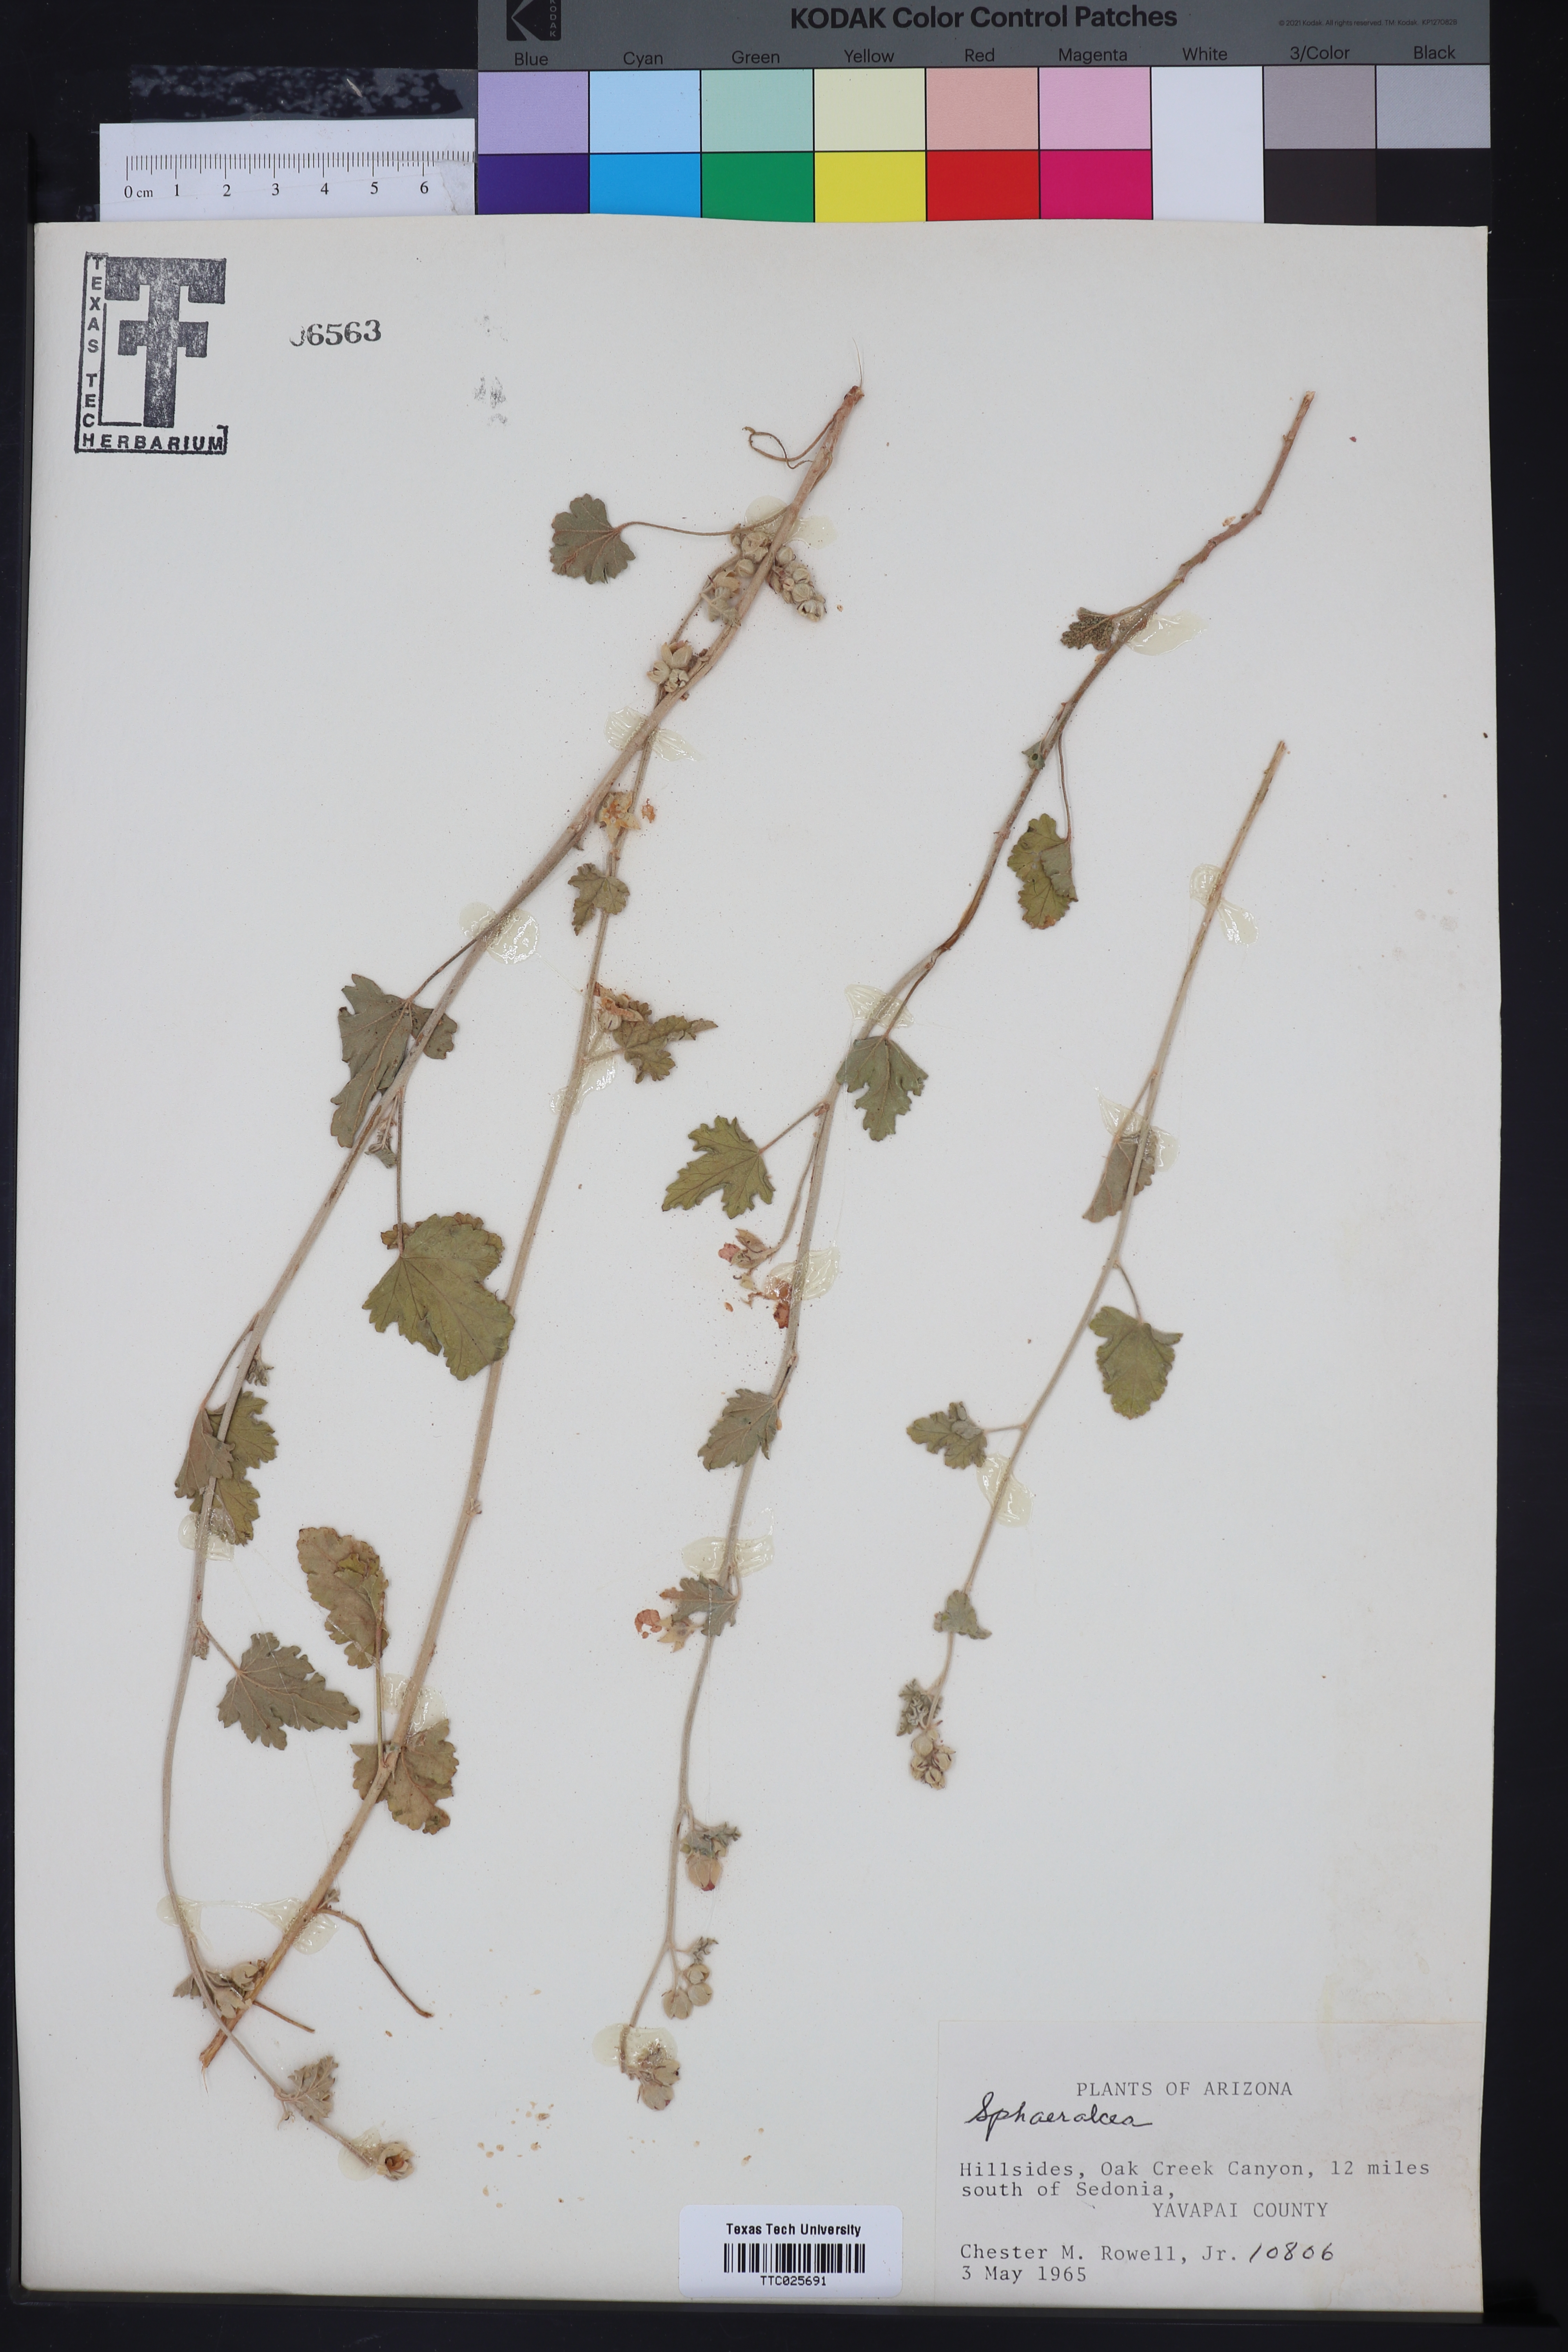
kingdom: Plantae
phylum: Tracheophyta
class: Magnoliopsida
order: Malvales
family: Malvaceae
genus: Sphaeralcea
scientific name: Sphaeralcea
